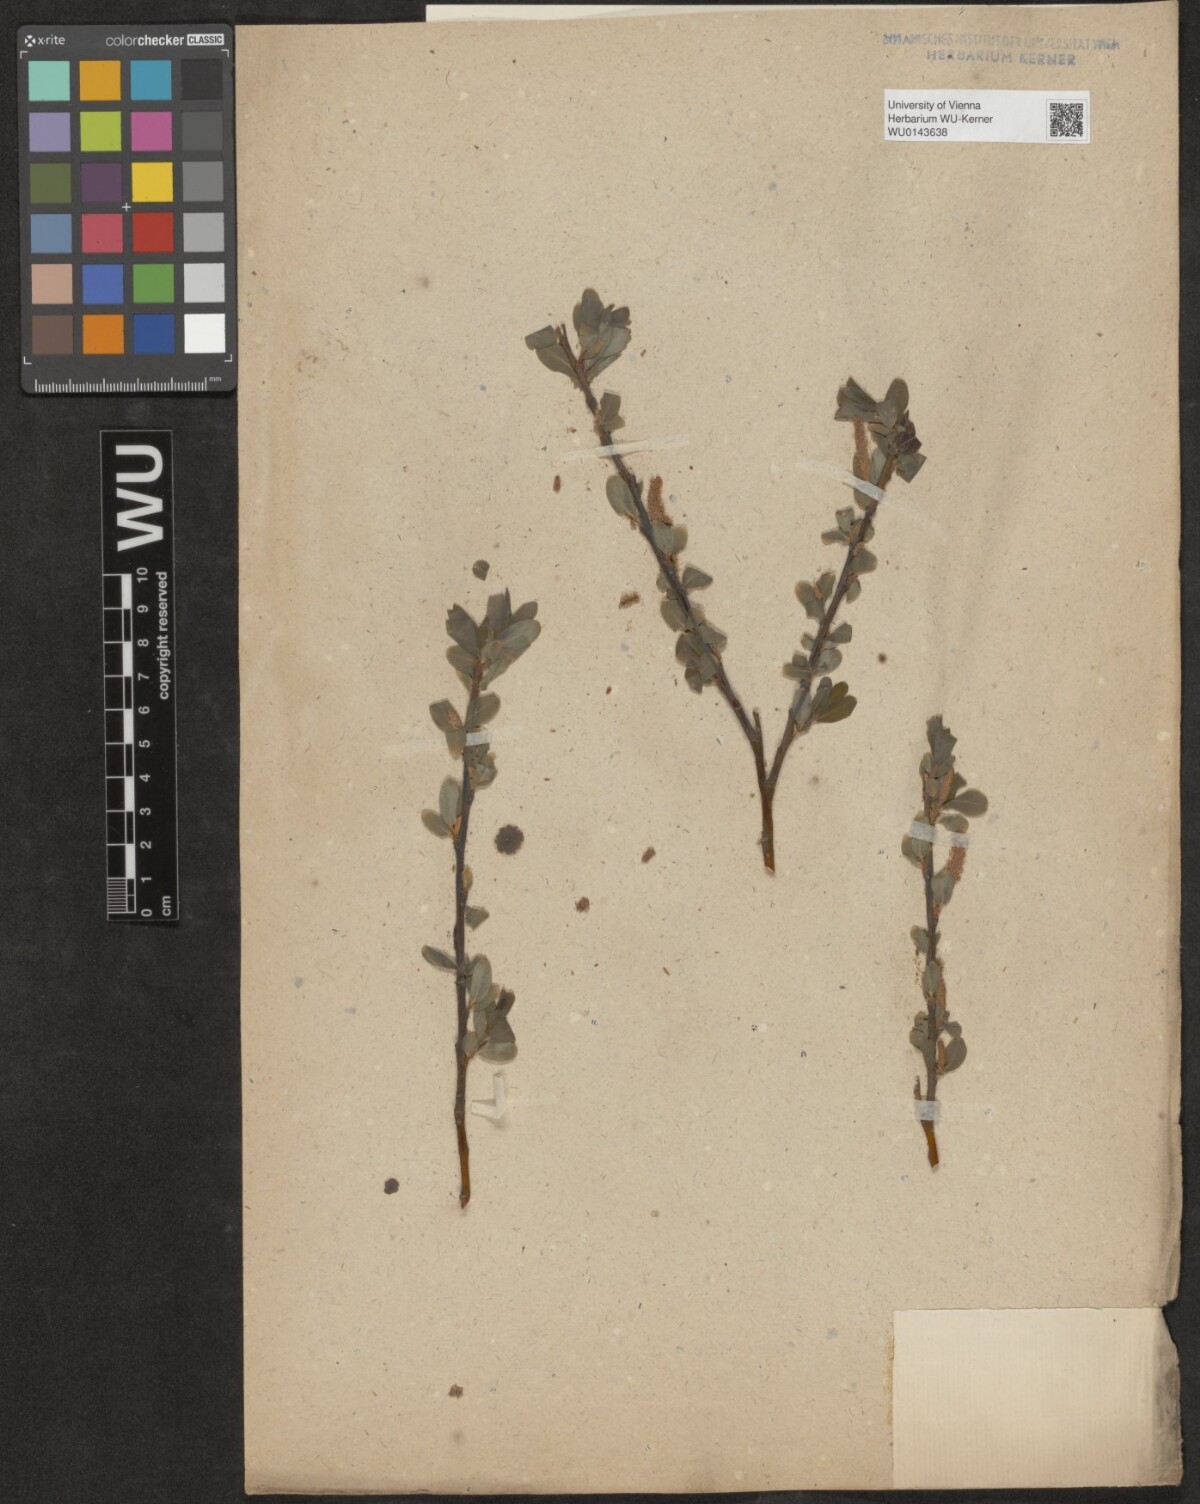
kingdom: Plantae
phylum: Tracheophyta
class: Magnoliopsida
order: Malpighiales
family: Salicaceae
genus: Salix
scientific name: Salix
